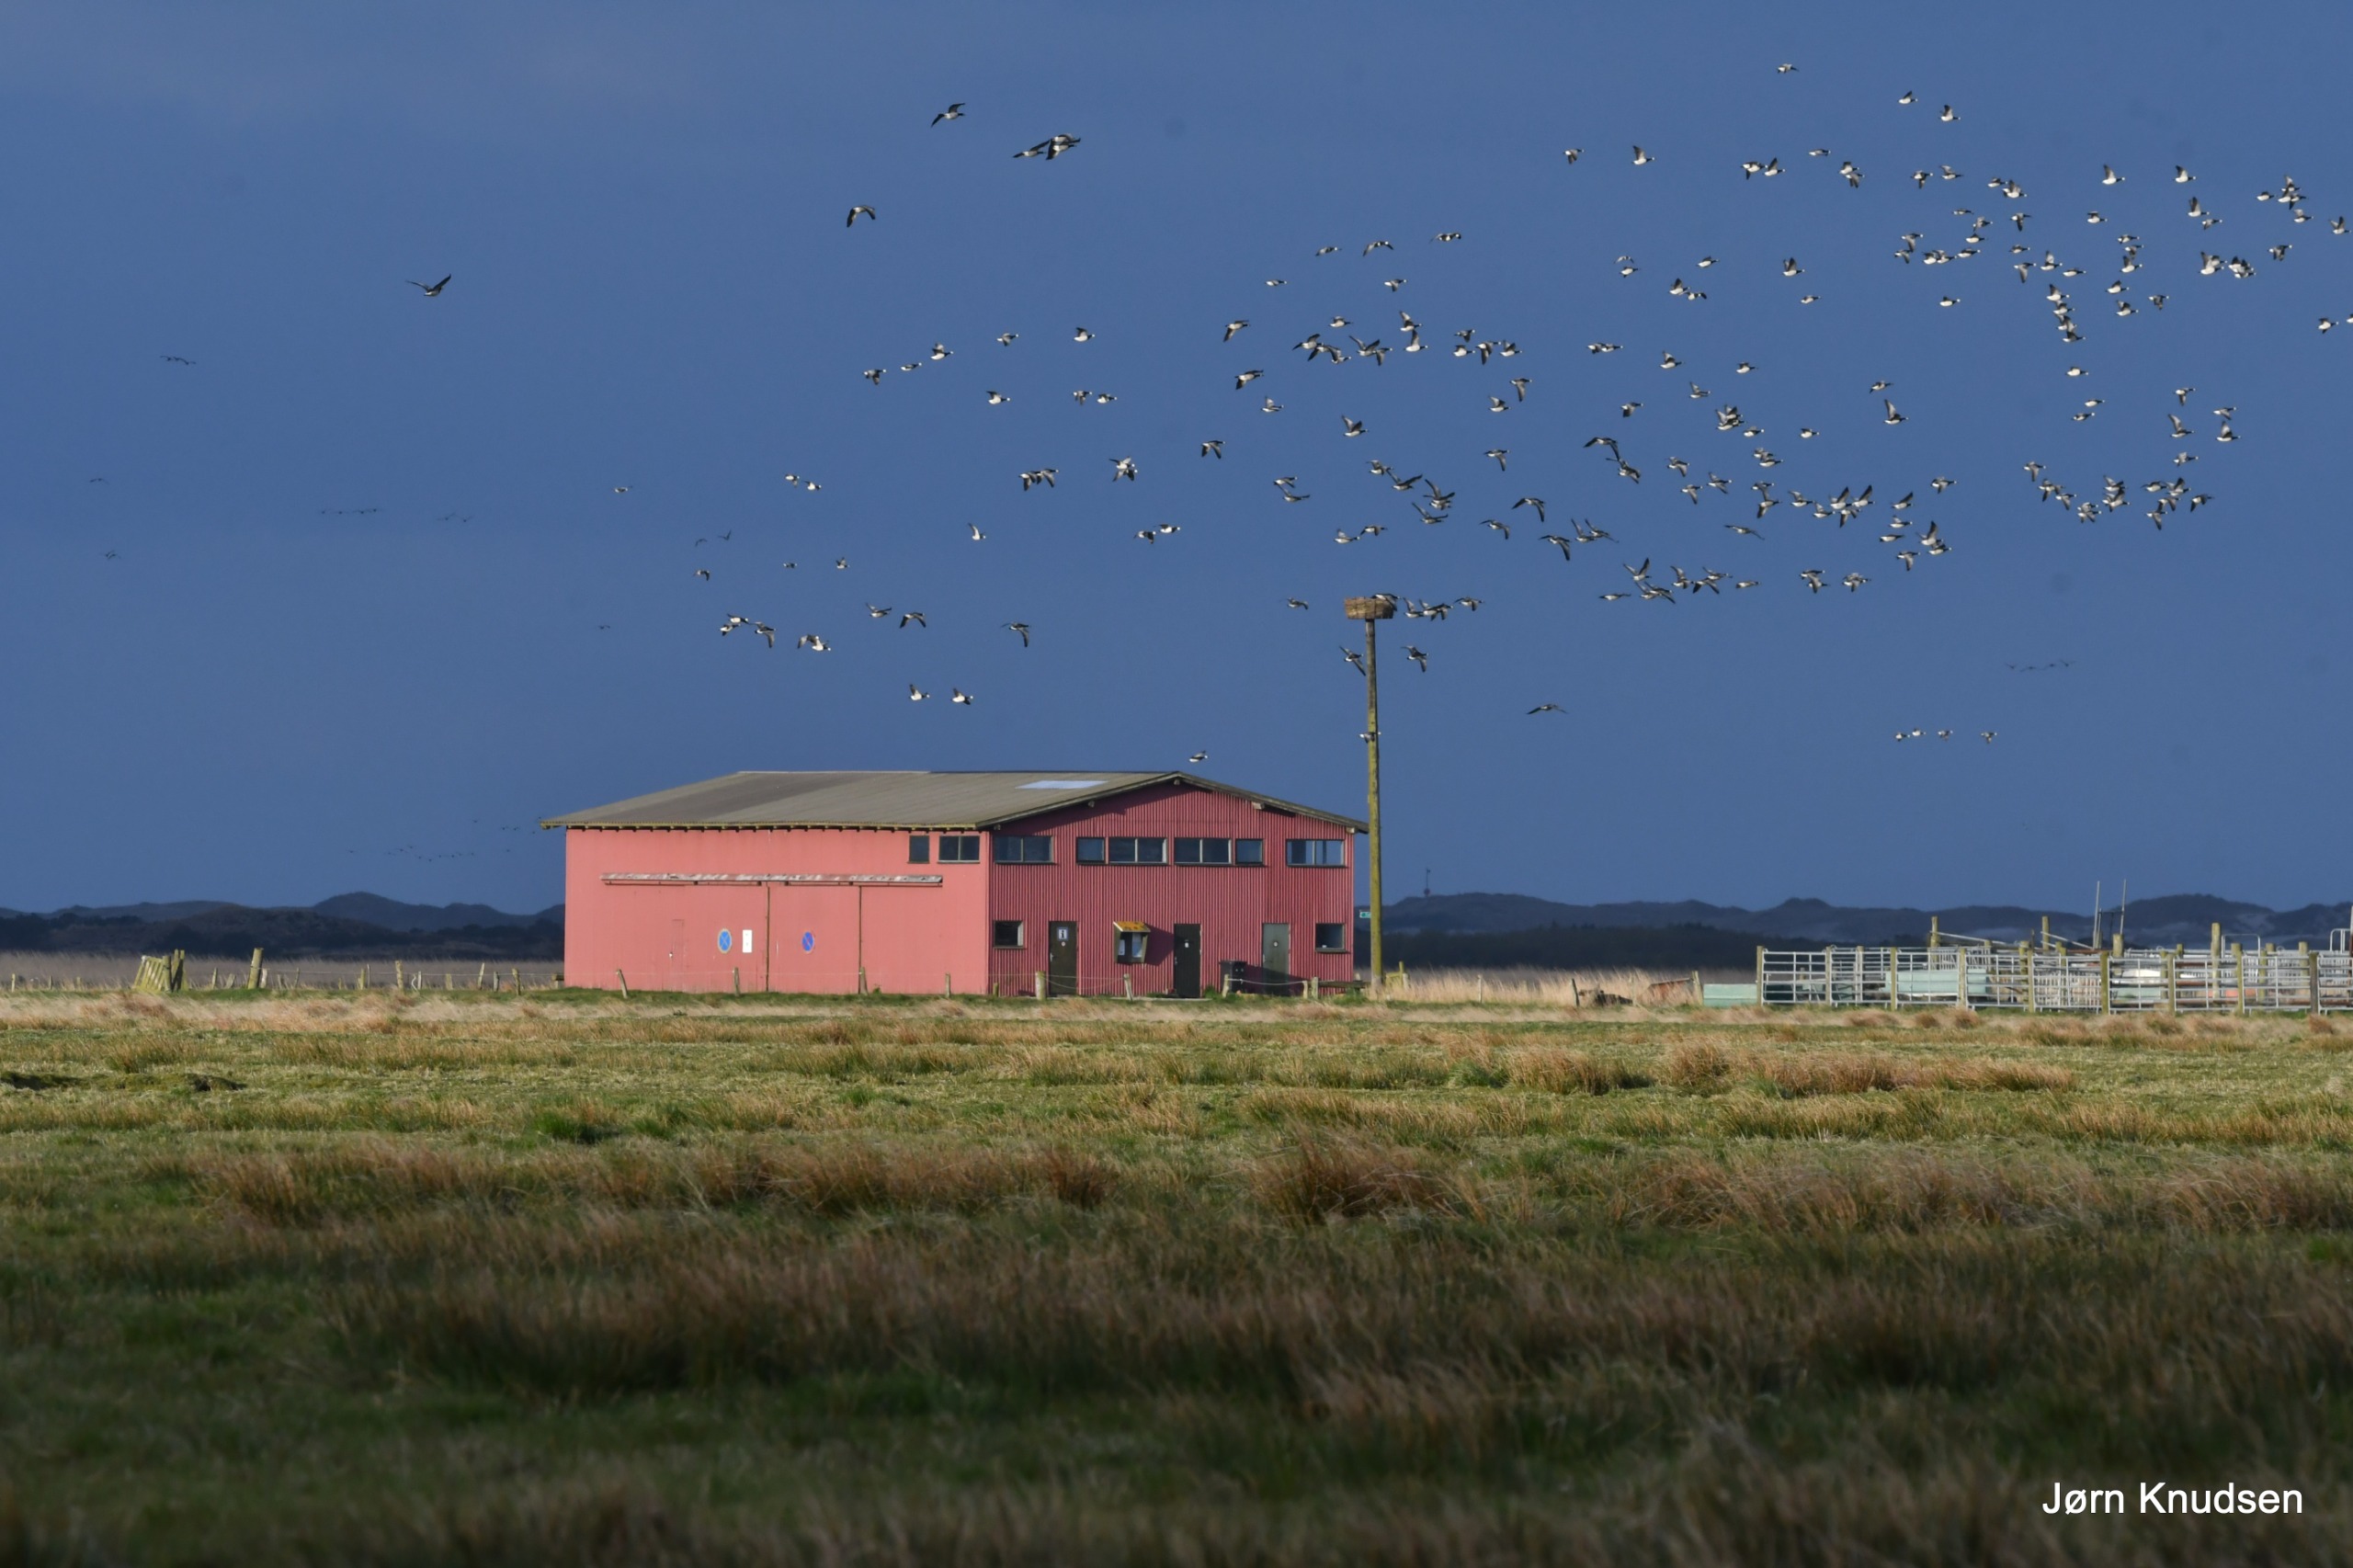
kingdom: Animalia
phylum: Chordata
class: Aves
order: Anseriformes
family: Anatidae
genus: Branta
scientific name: Branta leucopsis
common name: Bramgås
